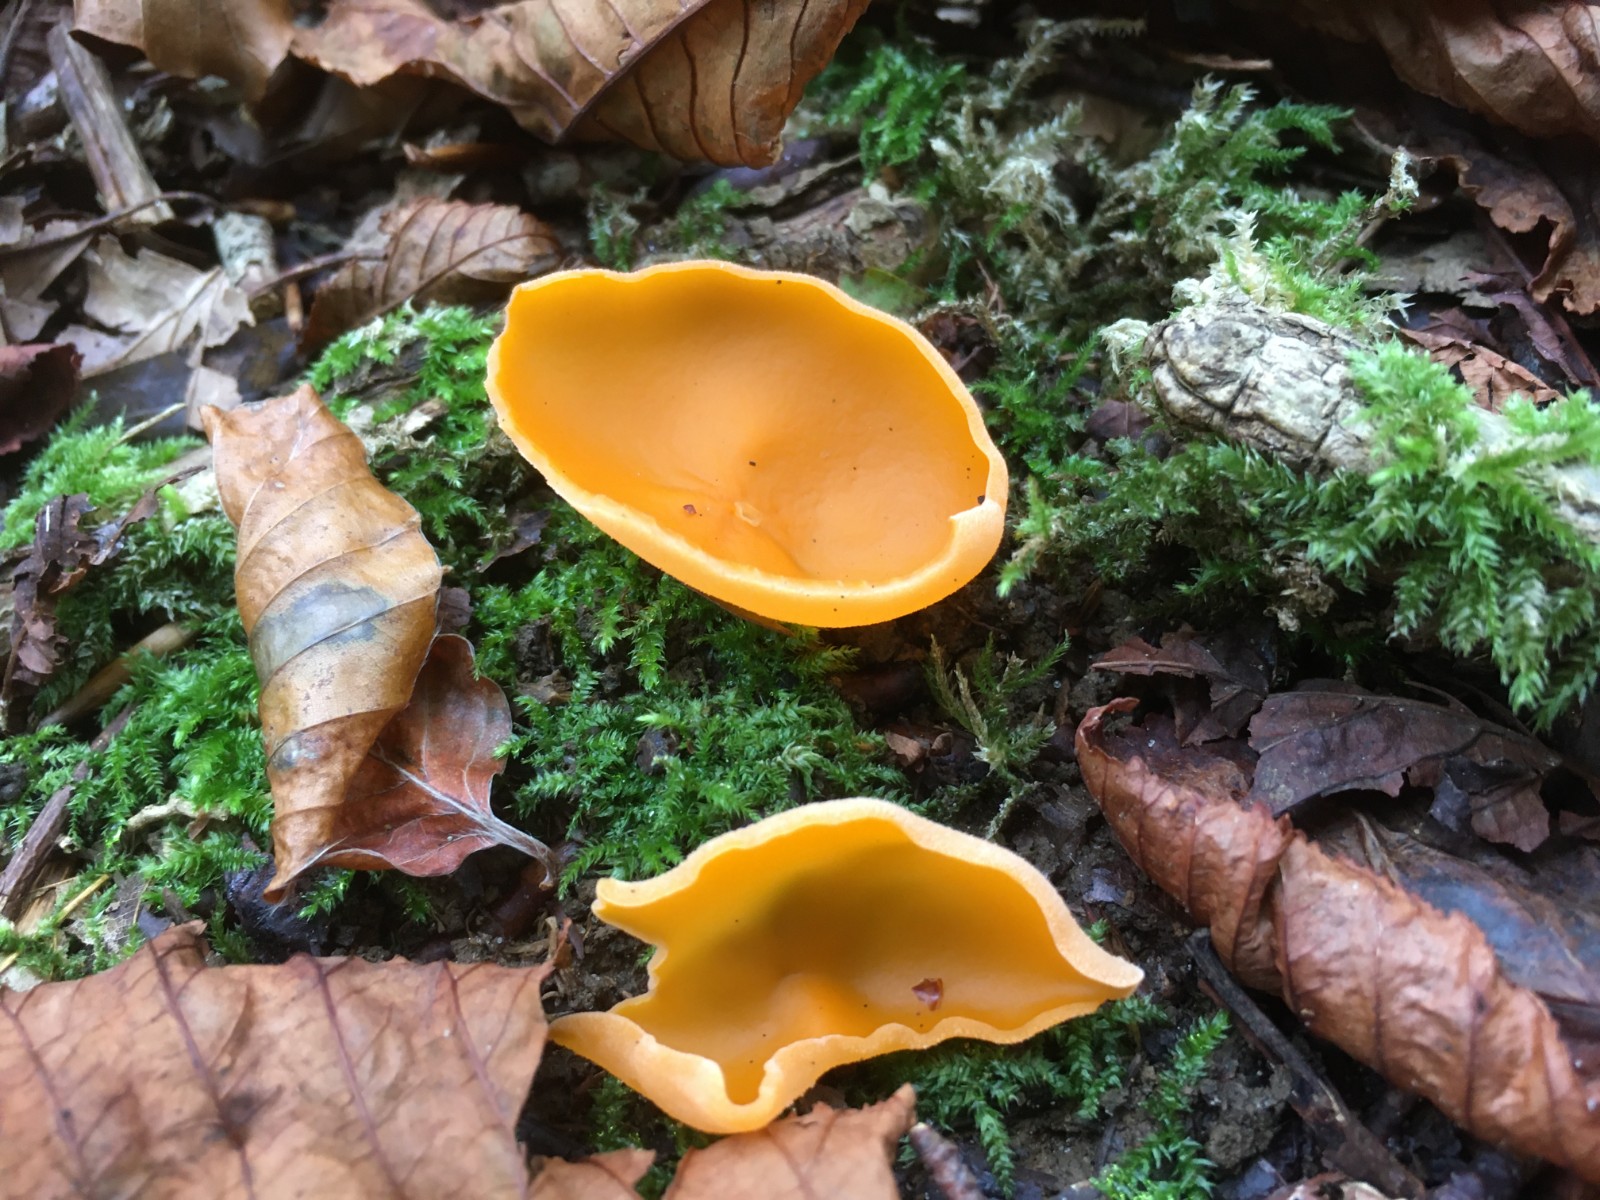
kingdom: Fungi
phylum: Ascomycota
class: Pezizomycetes
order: Pezizales
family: Pyronemataceae
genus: Aleuria
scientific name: Aleuria aurantia
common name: almindelig orangebæger
